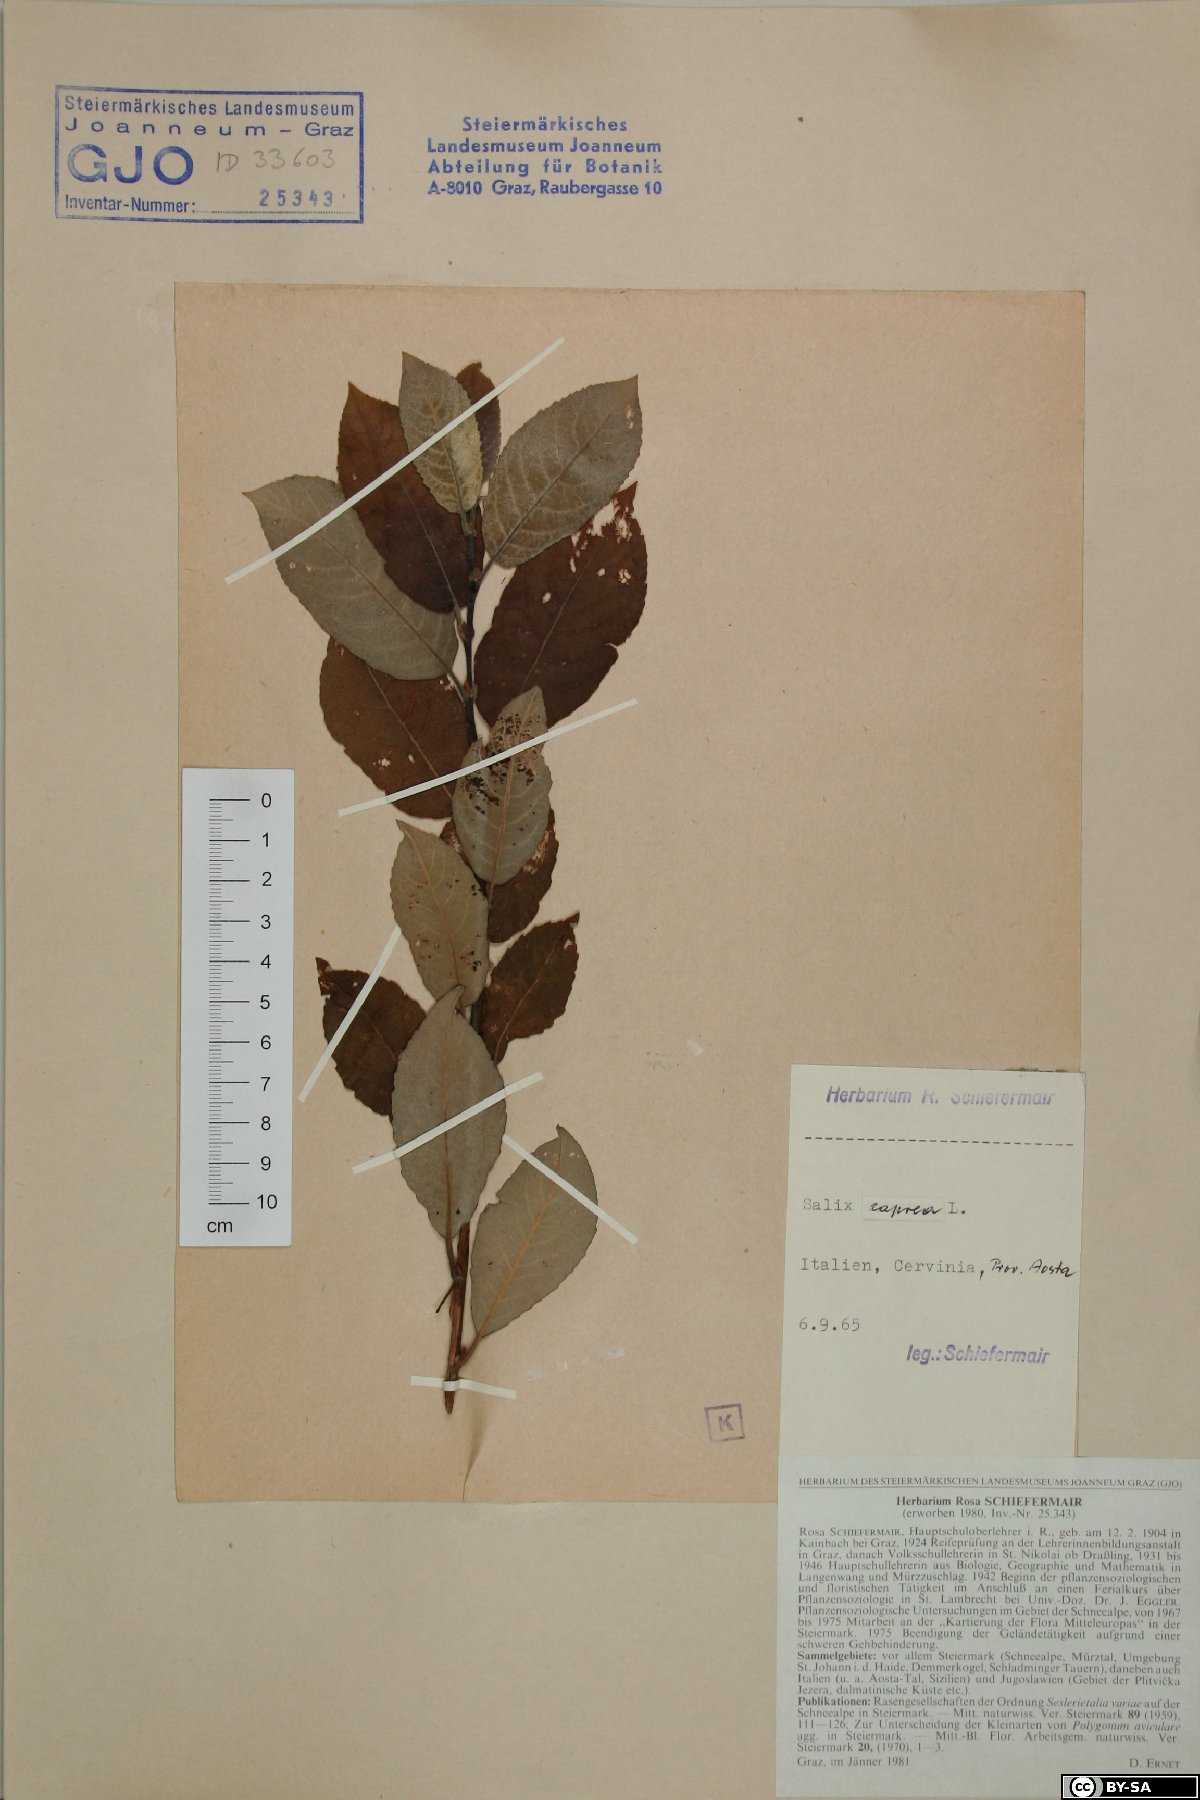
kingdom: Plantae
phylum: Tracheophyta
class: Magnoliopsida
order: Malpighiales
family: Salicaceae
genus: Salix
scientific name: Salix caprea
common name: Goat willow
